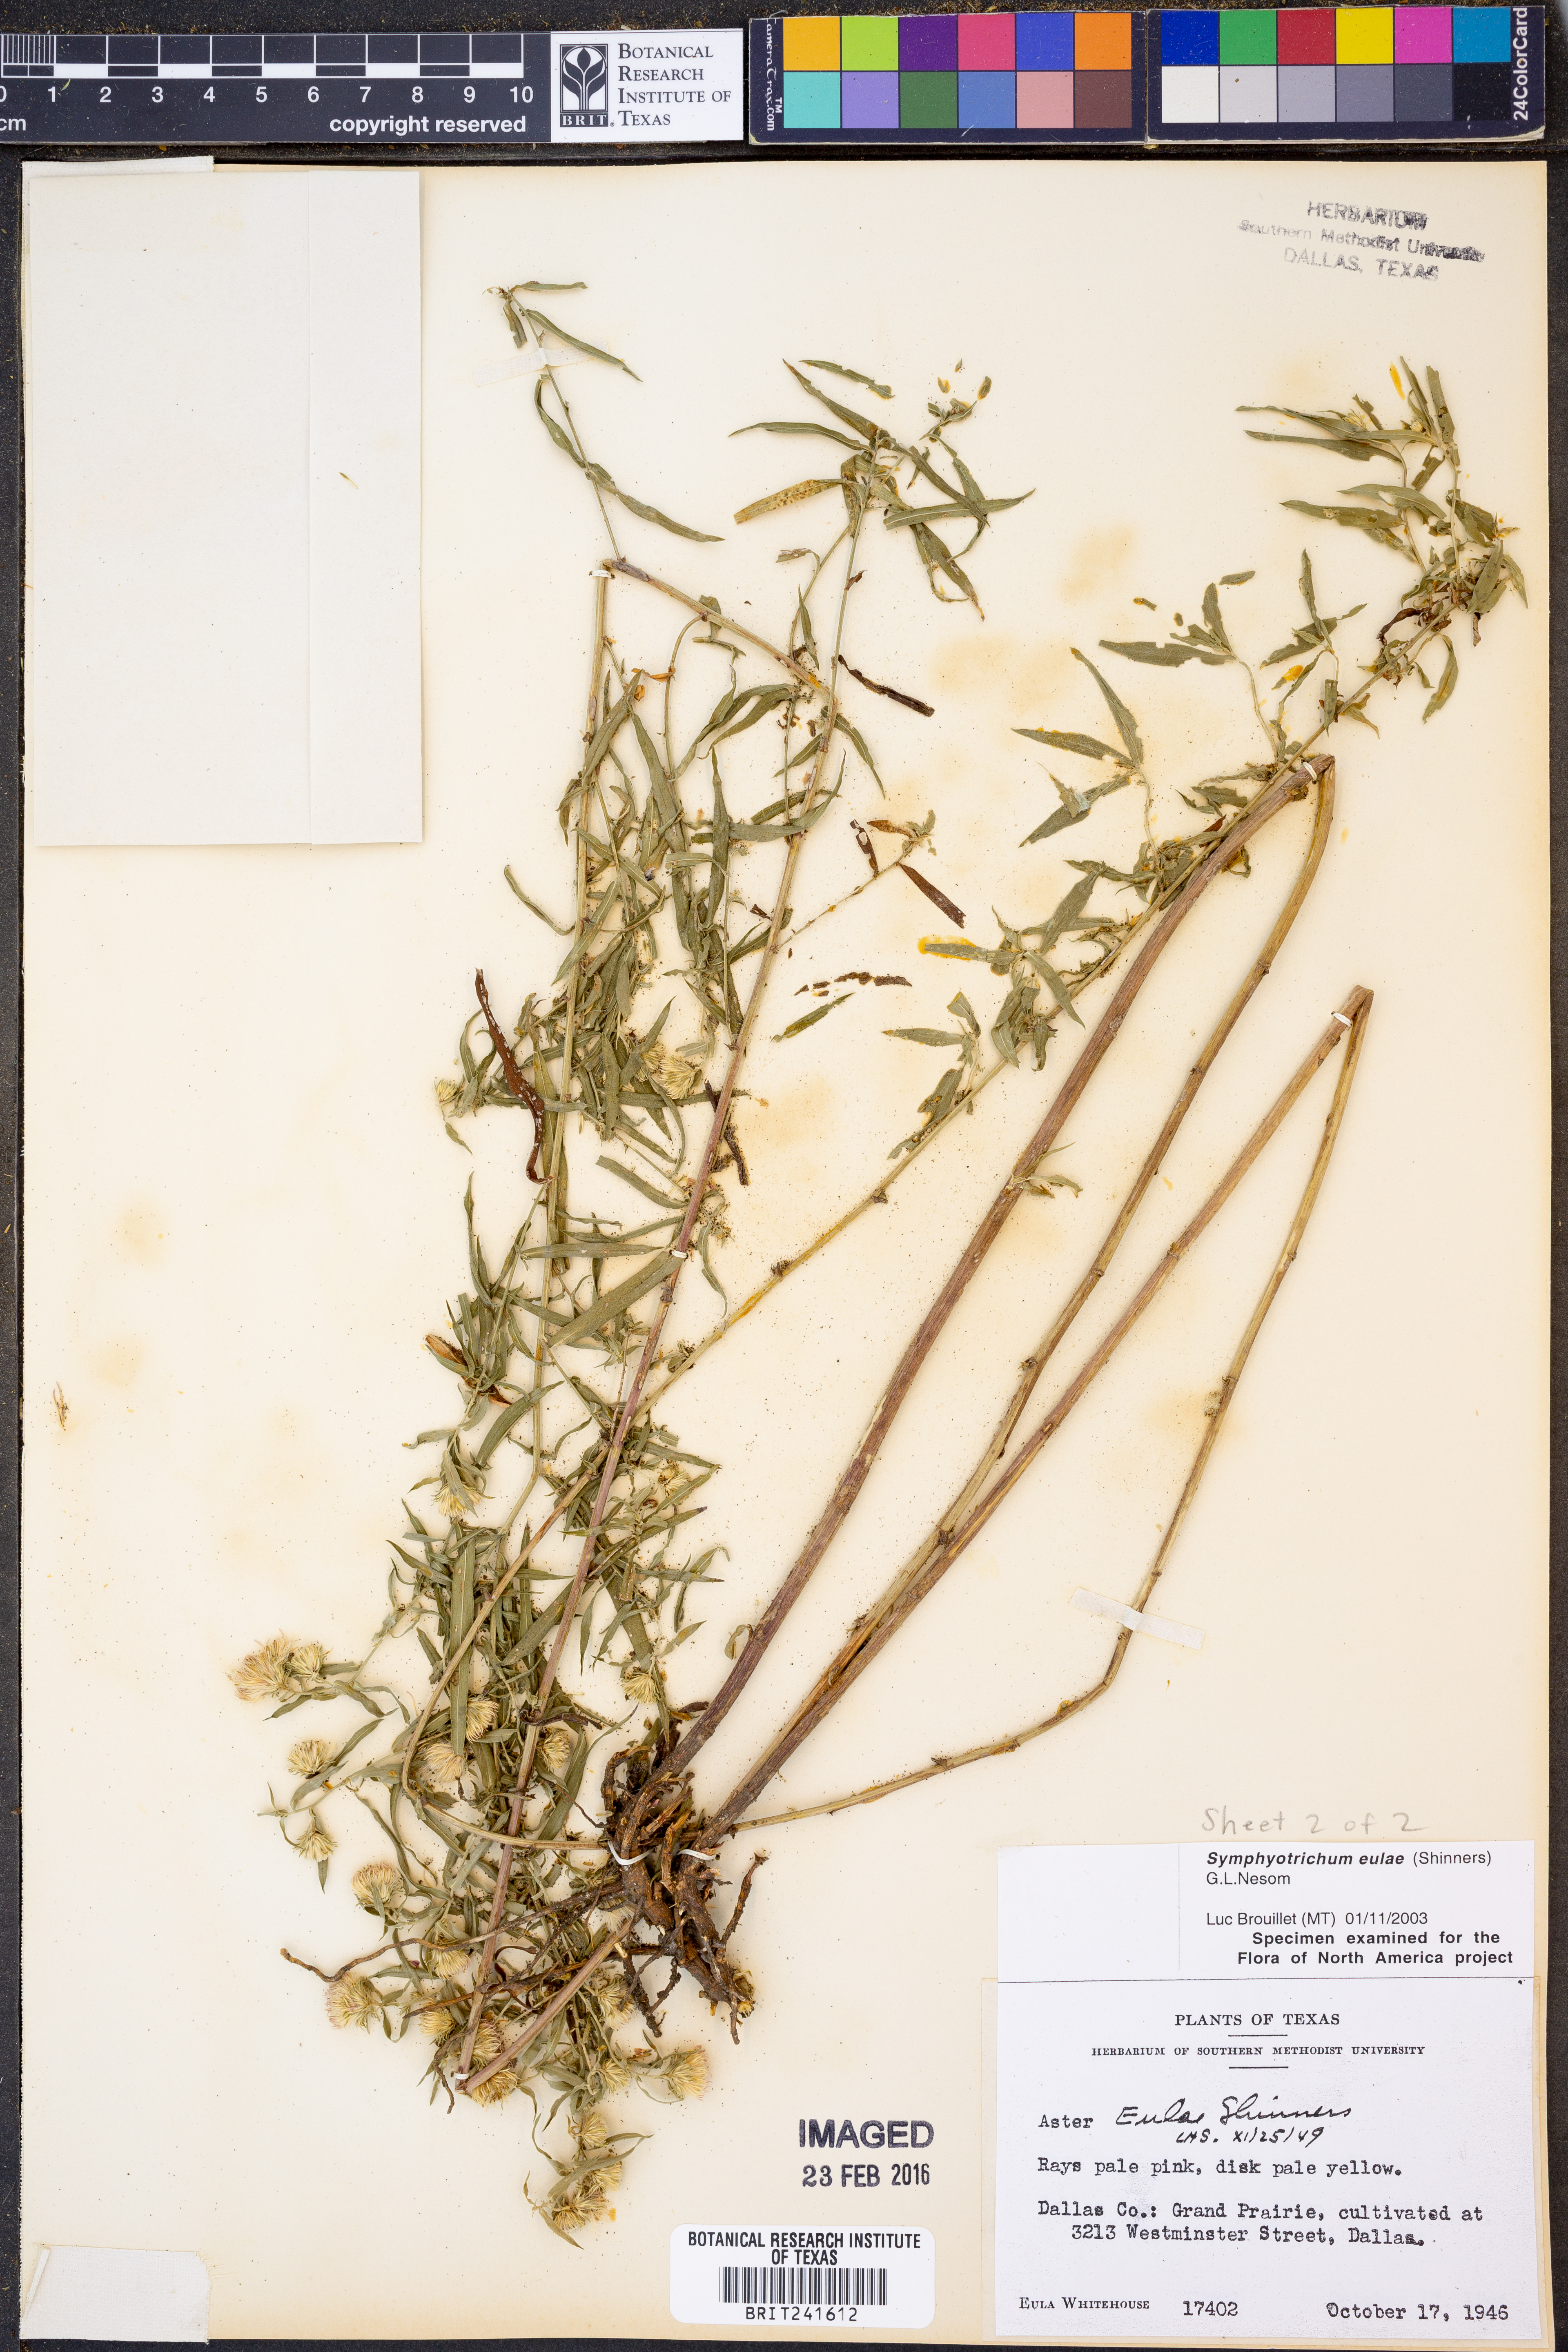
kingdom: Plantae
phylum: Tracheophyta
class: Magnoliopsida
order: Asterales
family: Asteraceae
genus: Symphyotrichum
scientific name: Symphyotrichum eulae
